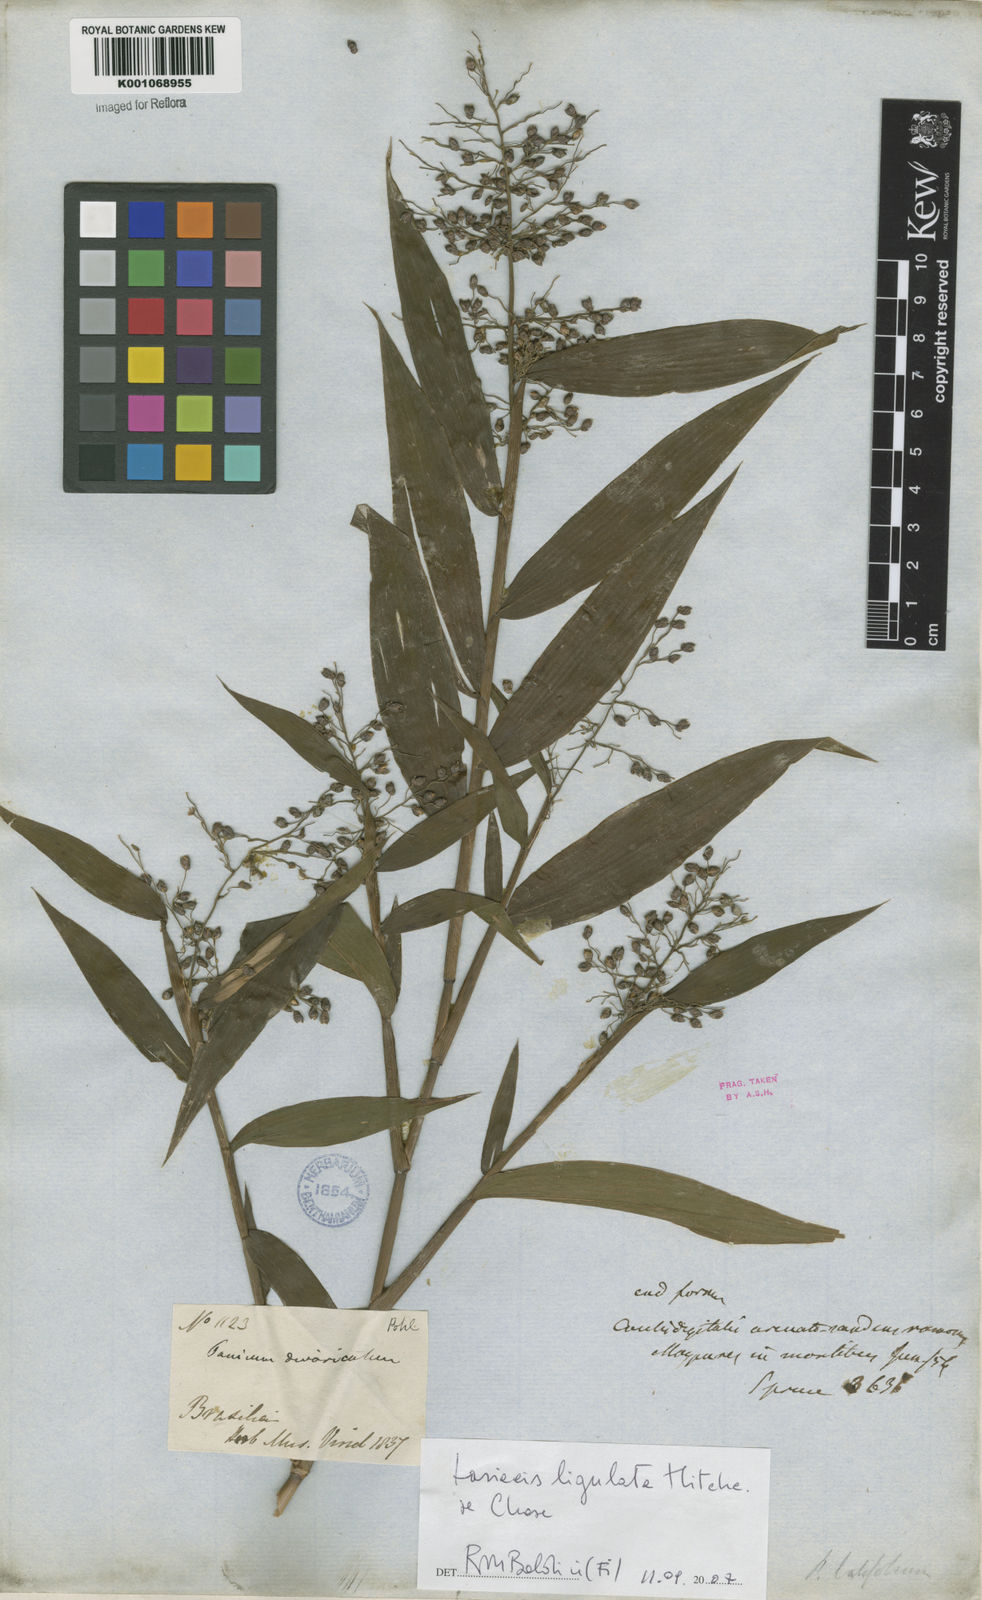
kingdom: Plantae
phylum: Tracheophyta
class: Liliopsida
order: Poales
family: Poaceae
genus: Lasiacis
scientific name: Lasiacis ligulata
